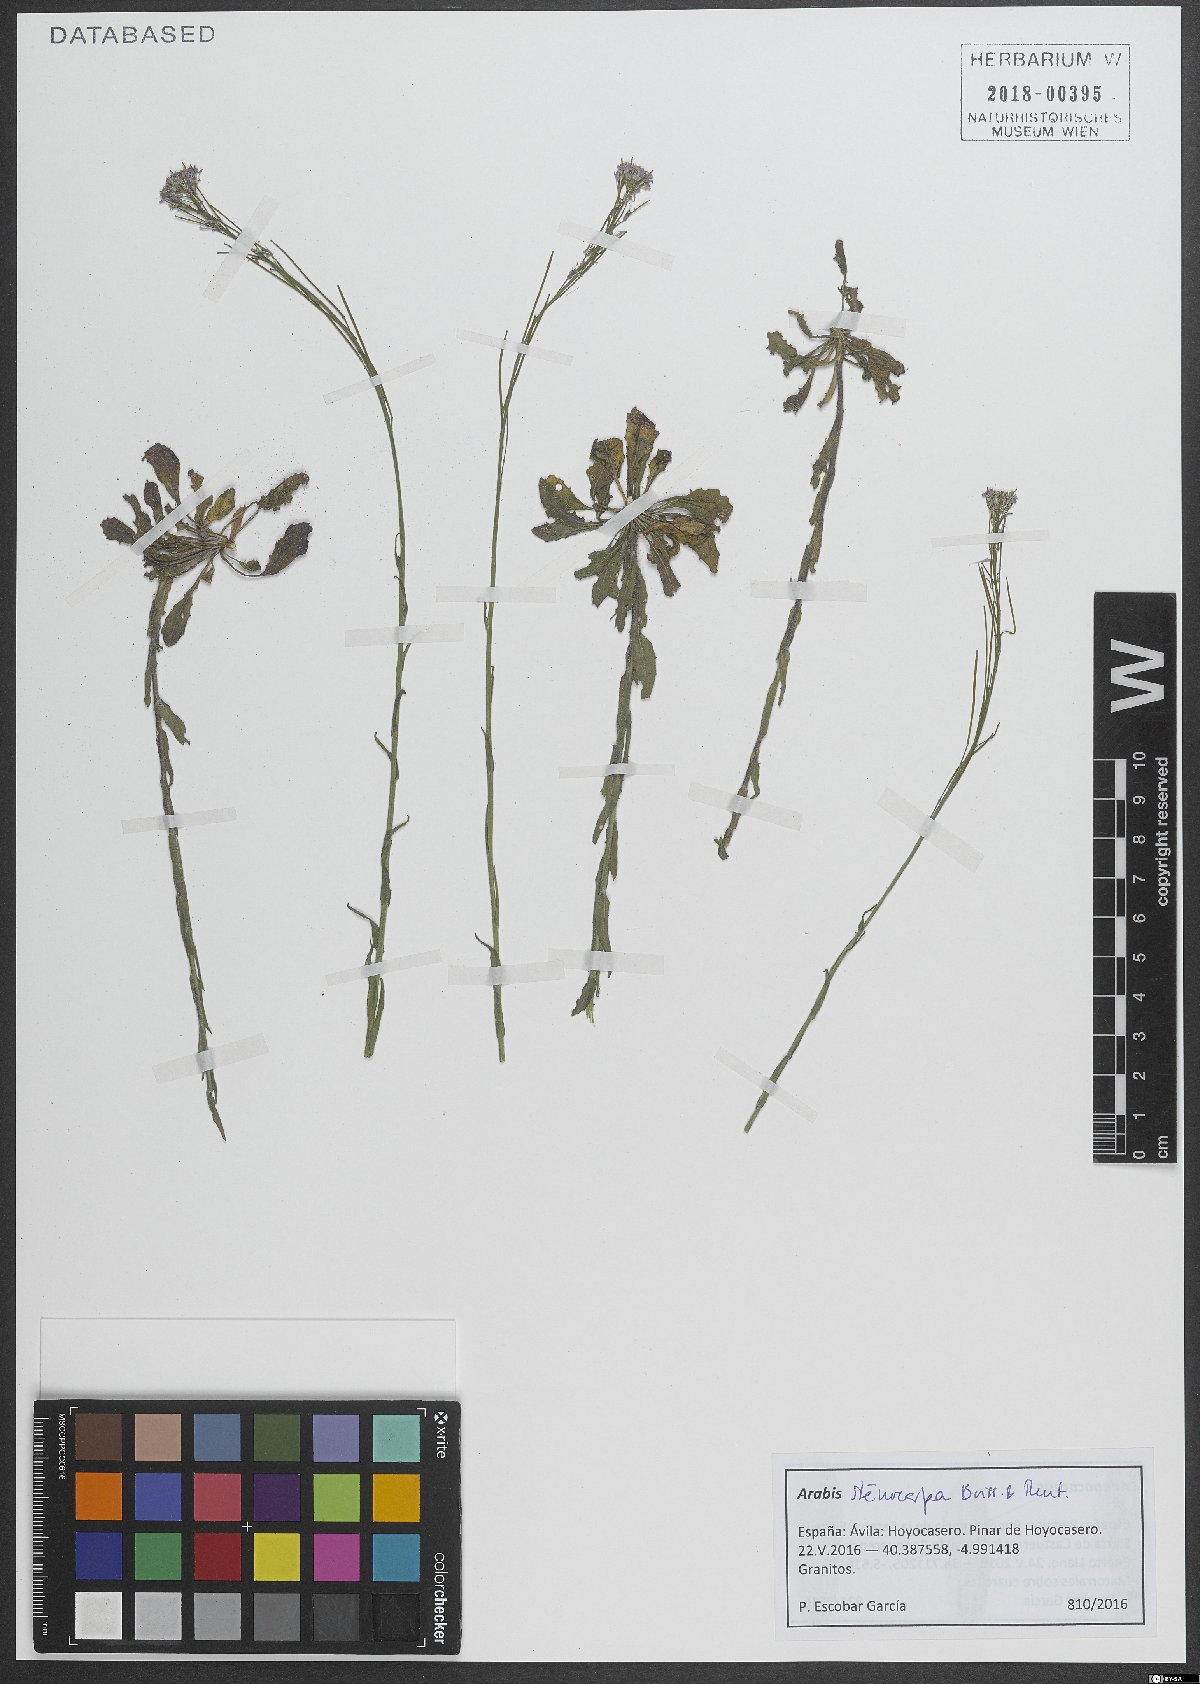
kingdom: Plantae
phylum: Tracheophyta
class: Magnoliopsida
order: Brassicales
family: Brassicaceae
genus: Arabis
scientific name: Arabis stenocarpa
